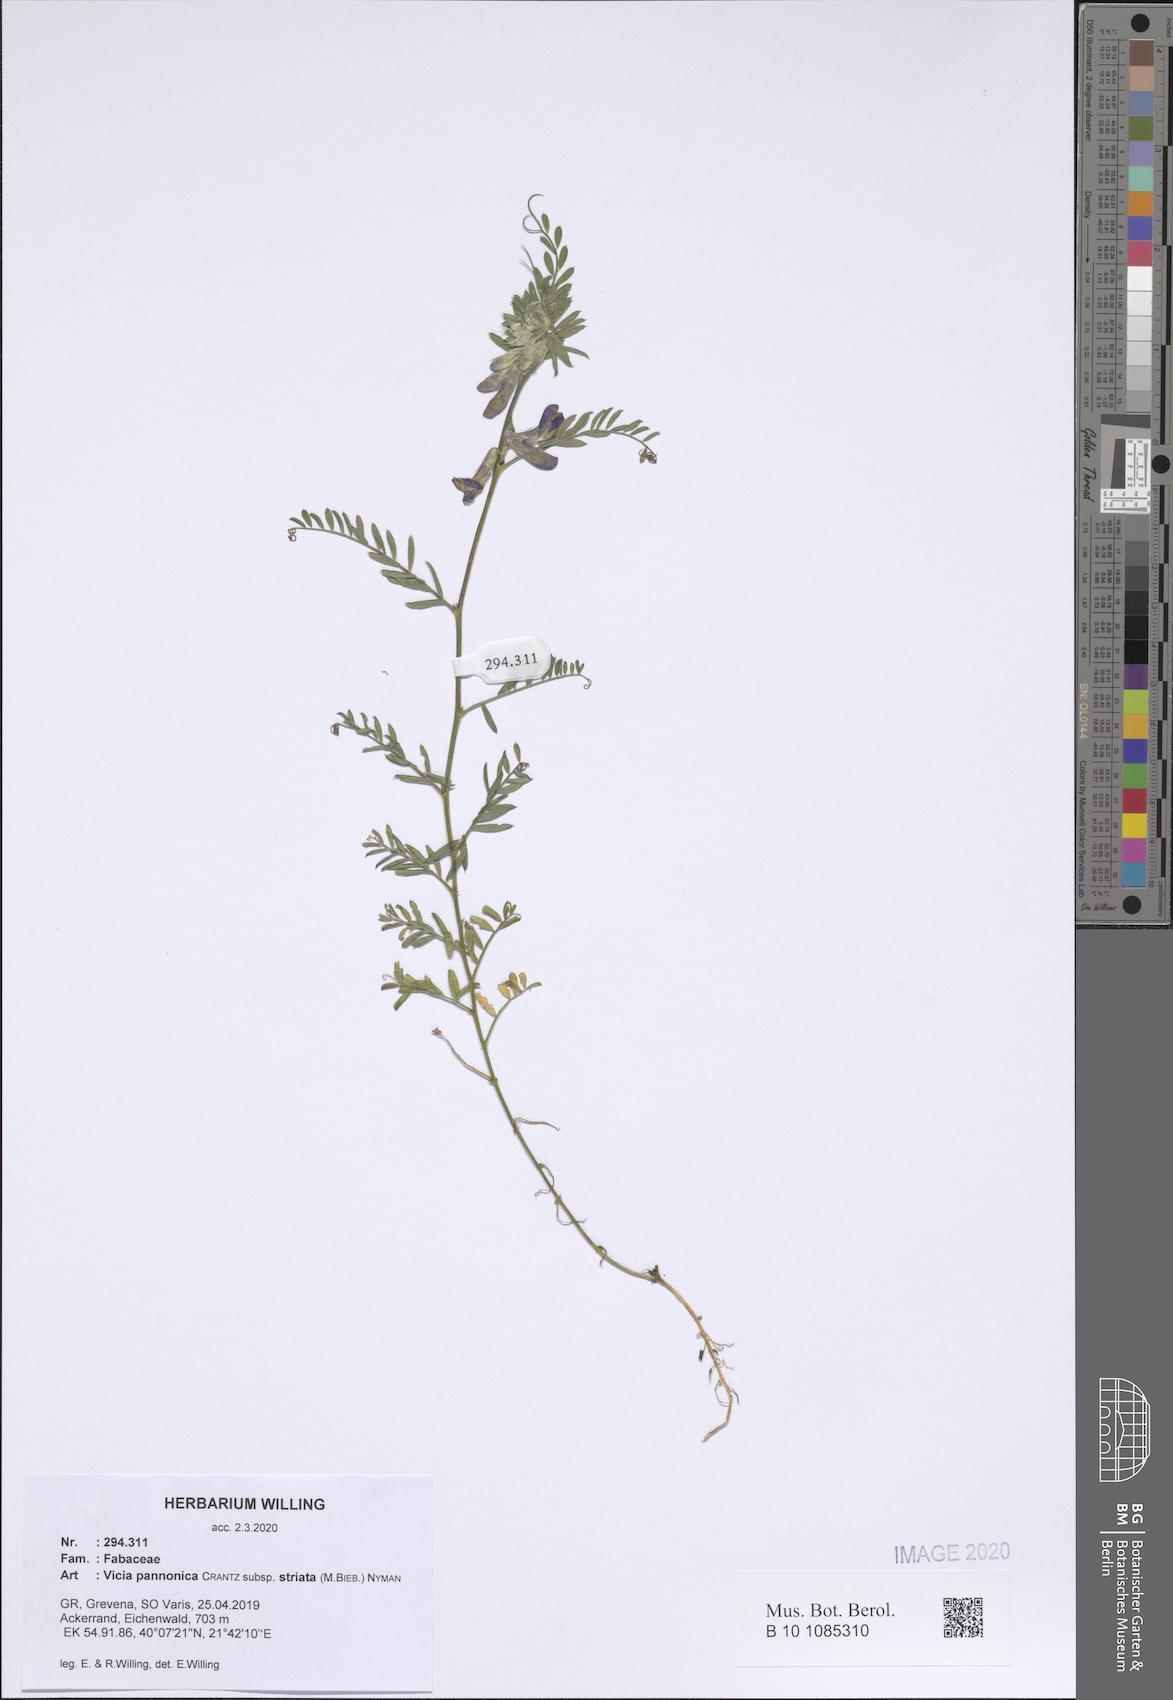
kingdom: Plantae
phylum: Tracheophyta
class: Magnoliopsida
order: Fabales
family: Fabaceae
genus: Vicia
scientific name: Vicia pannonica
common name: Hungarian vetch
